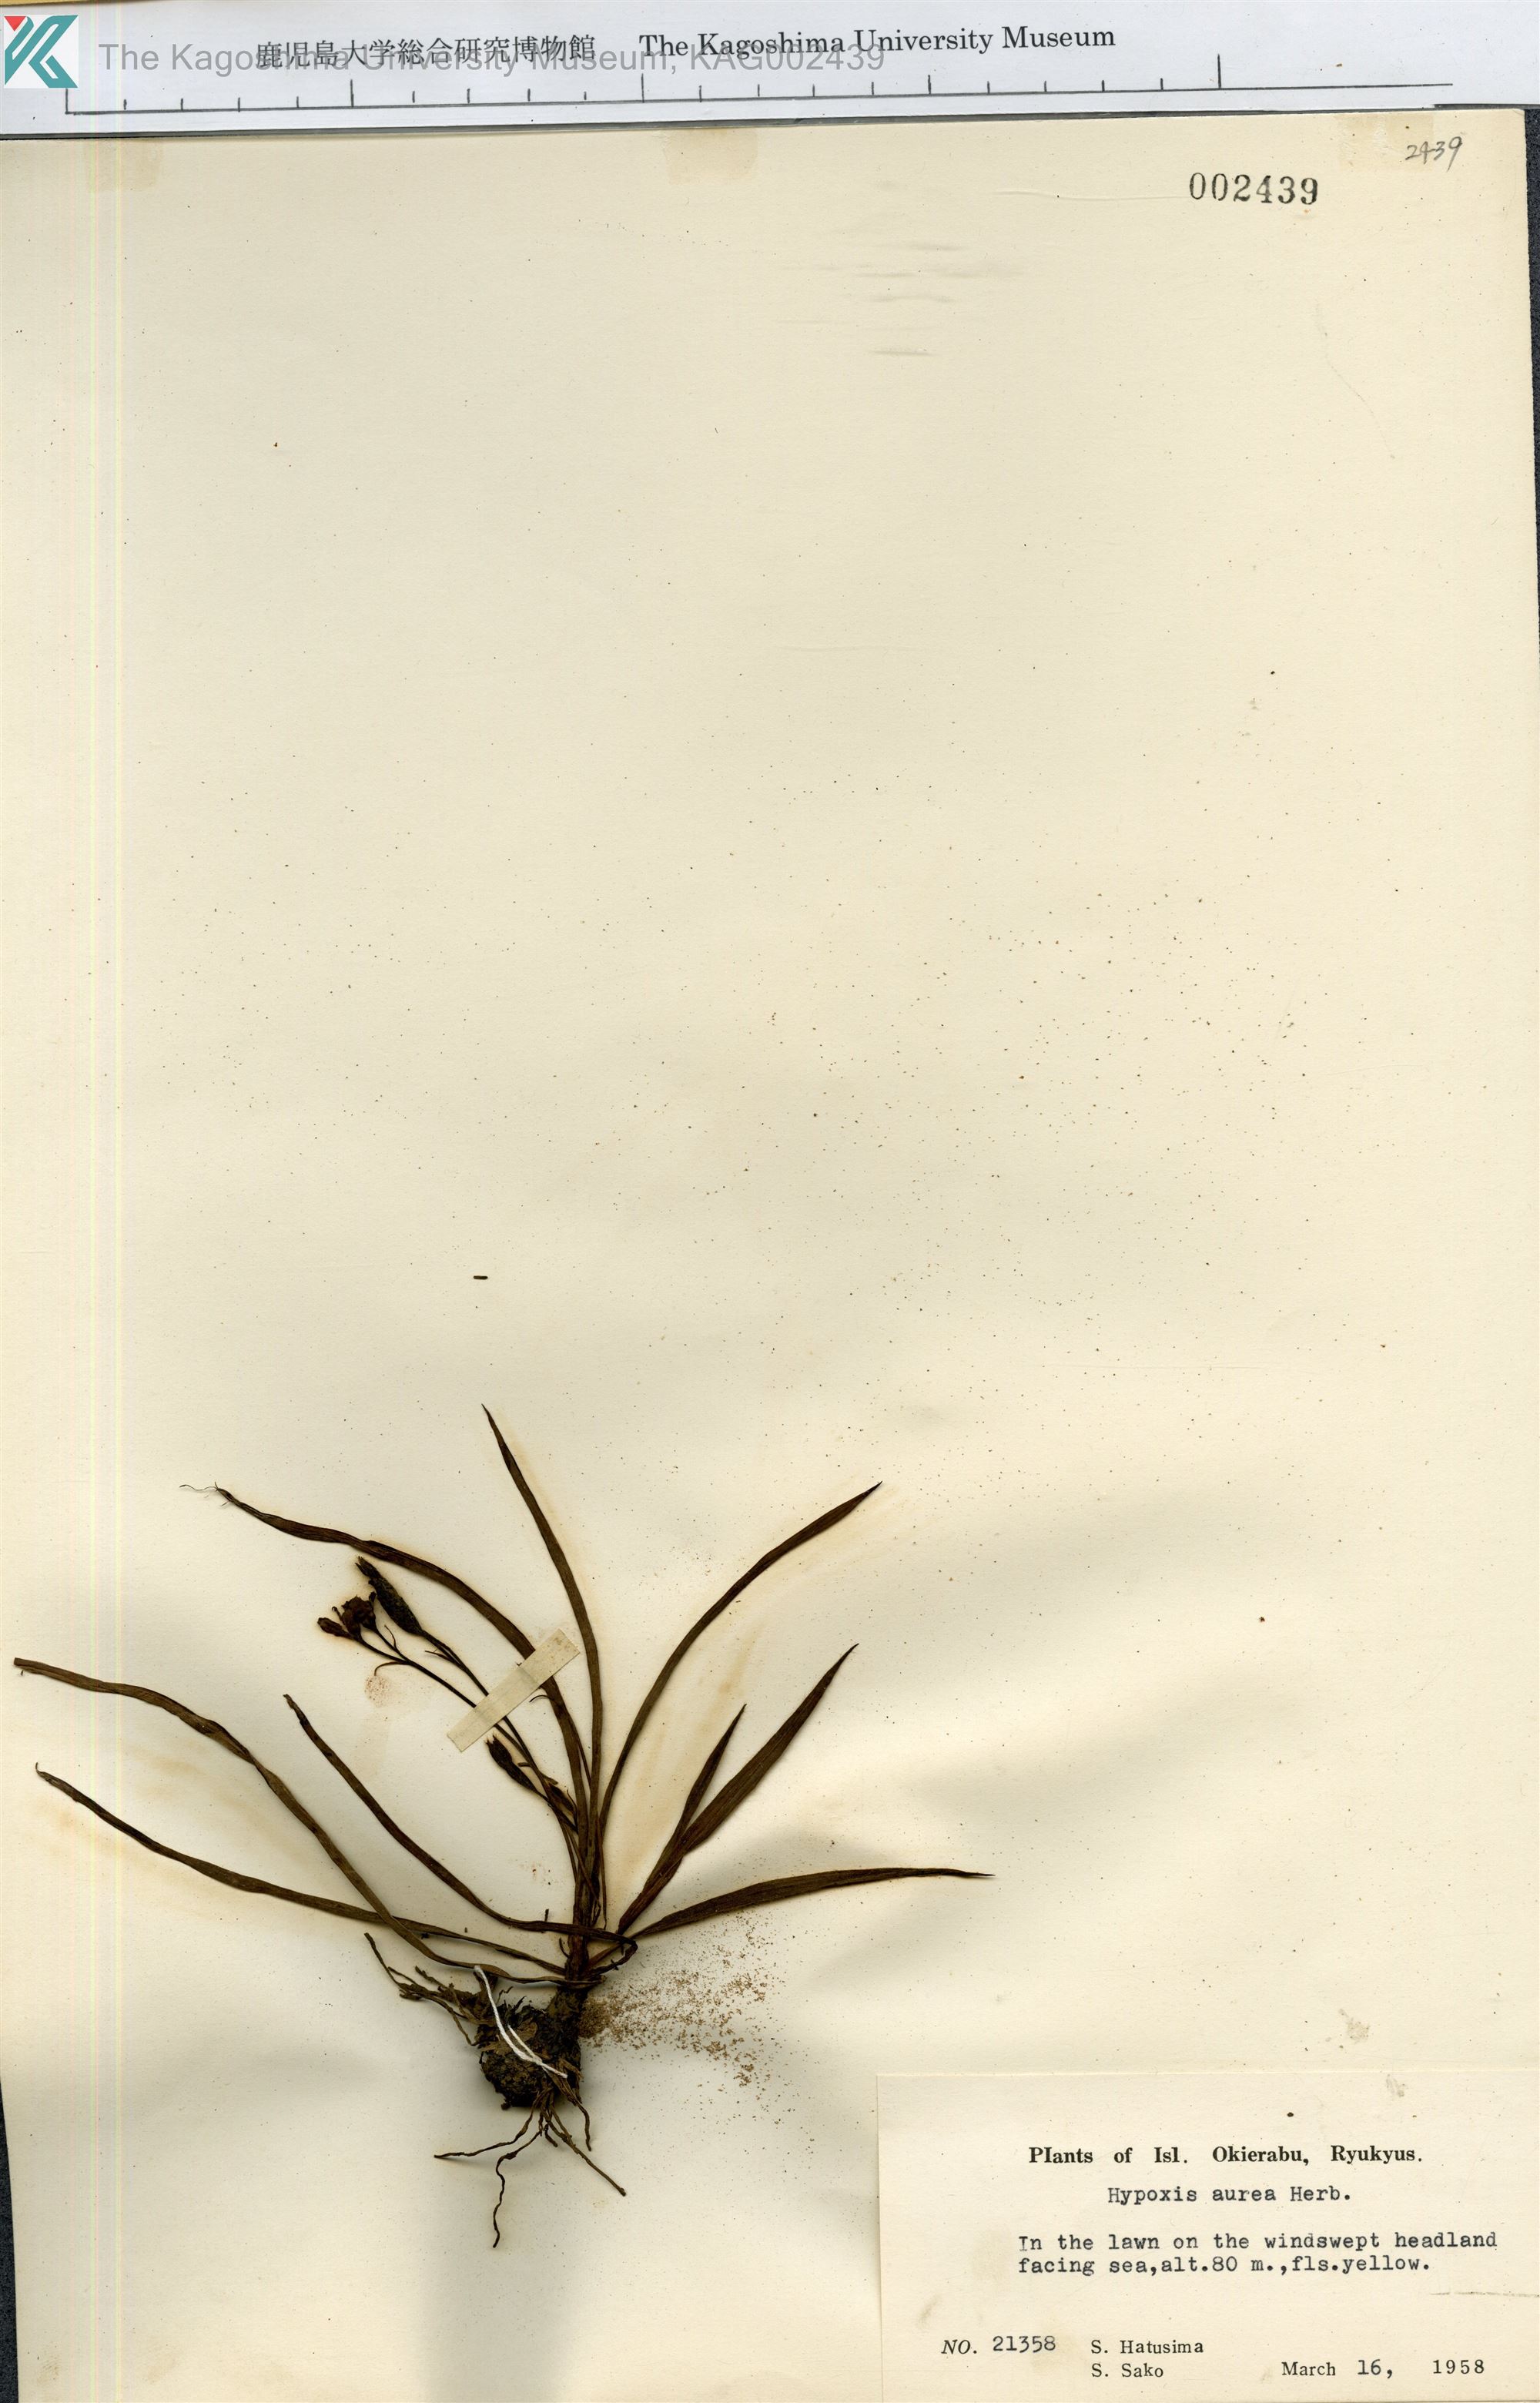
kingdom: Plantae
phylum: Tracheophyta
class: Liliopsida
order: Asparagales
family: Hypoxidaceae
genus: Hypoxis
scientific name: Hypoxis aurea
